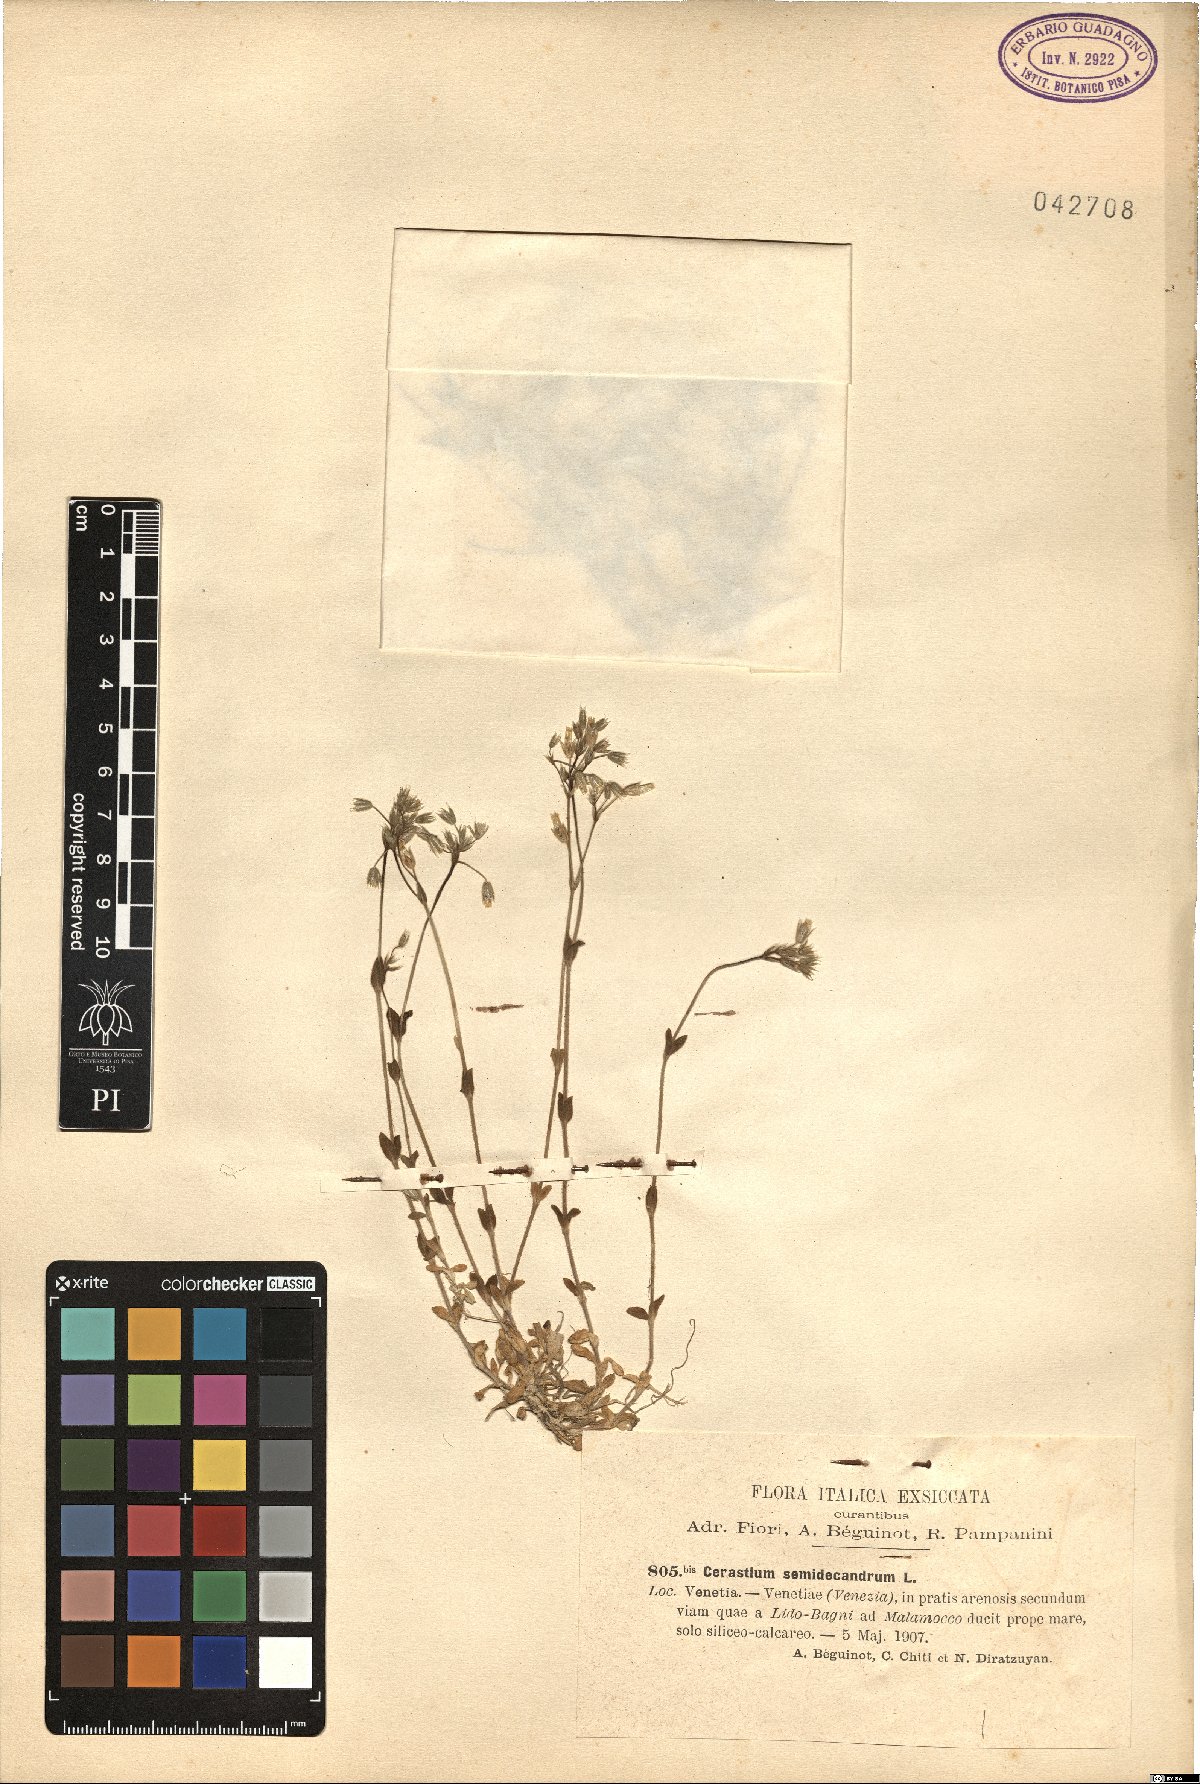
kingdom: Plantae
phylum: Tracheophyta
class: Magnoliopsida
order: Caryophyllales
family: Caryophyllaceae
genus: Cerastium
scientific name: Cerastium semidecandrum
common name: Little mouse-ear
